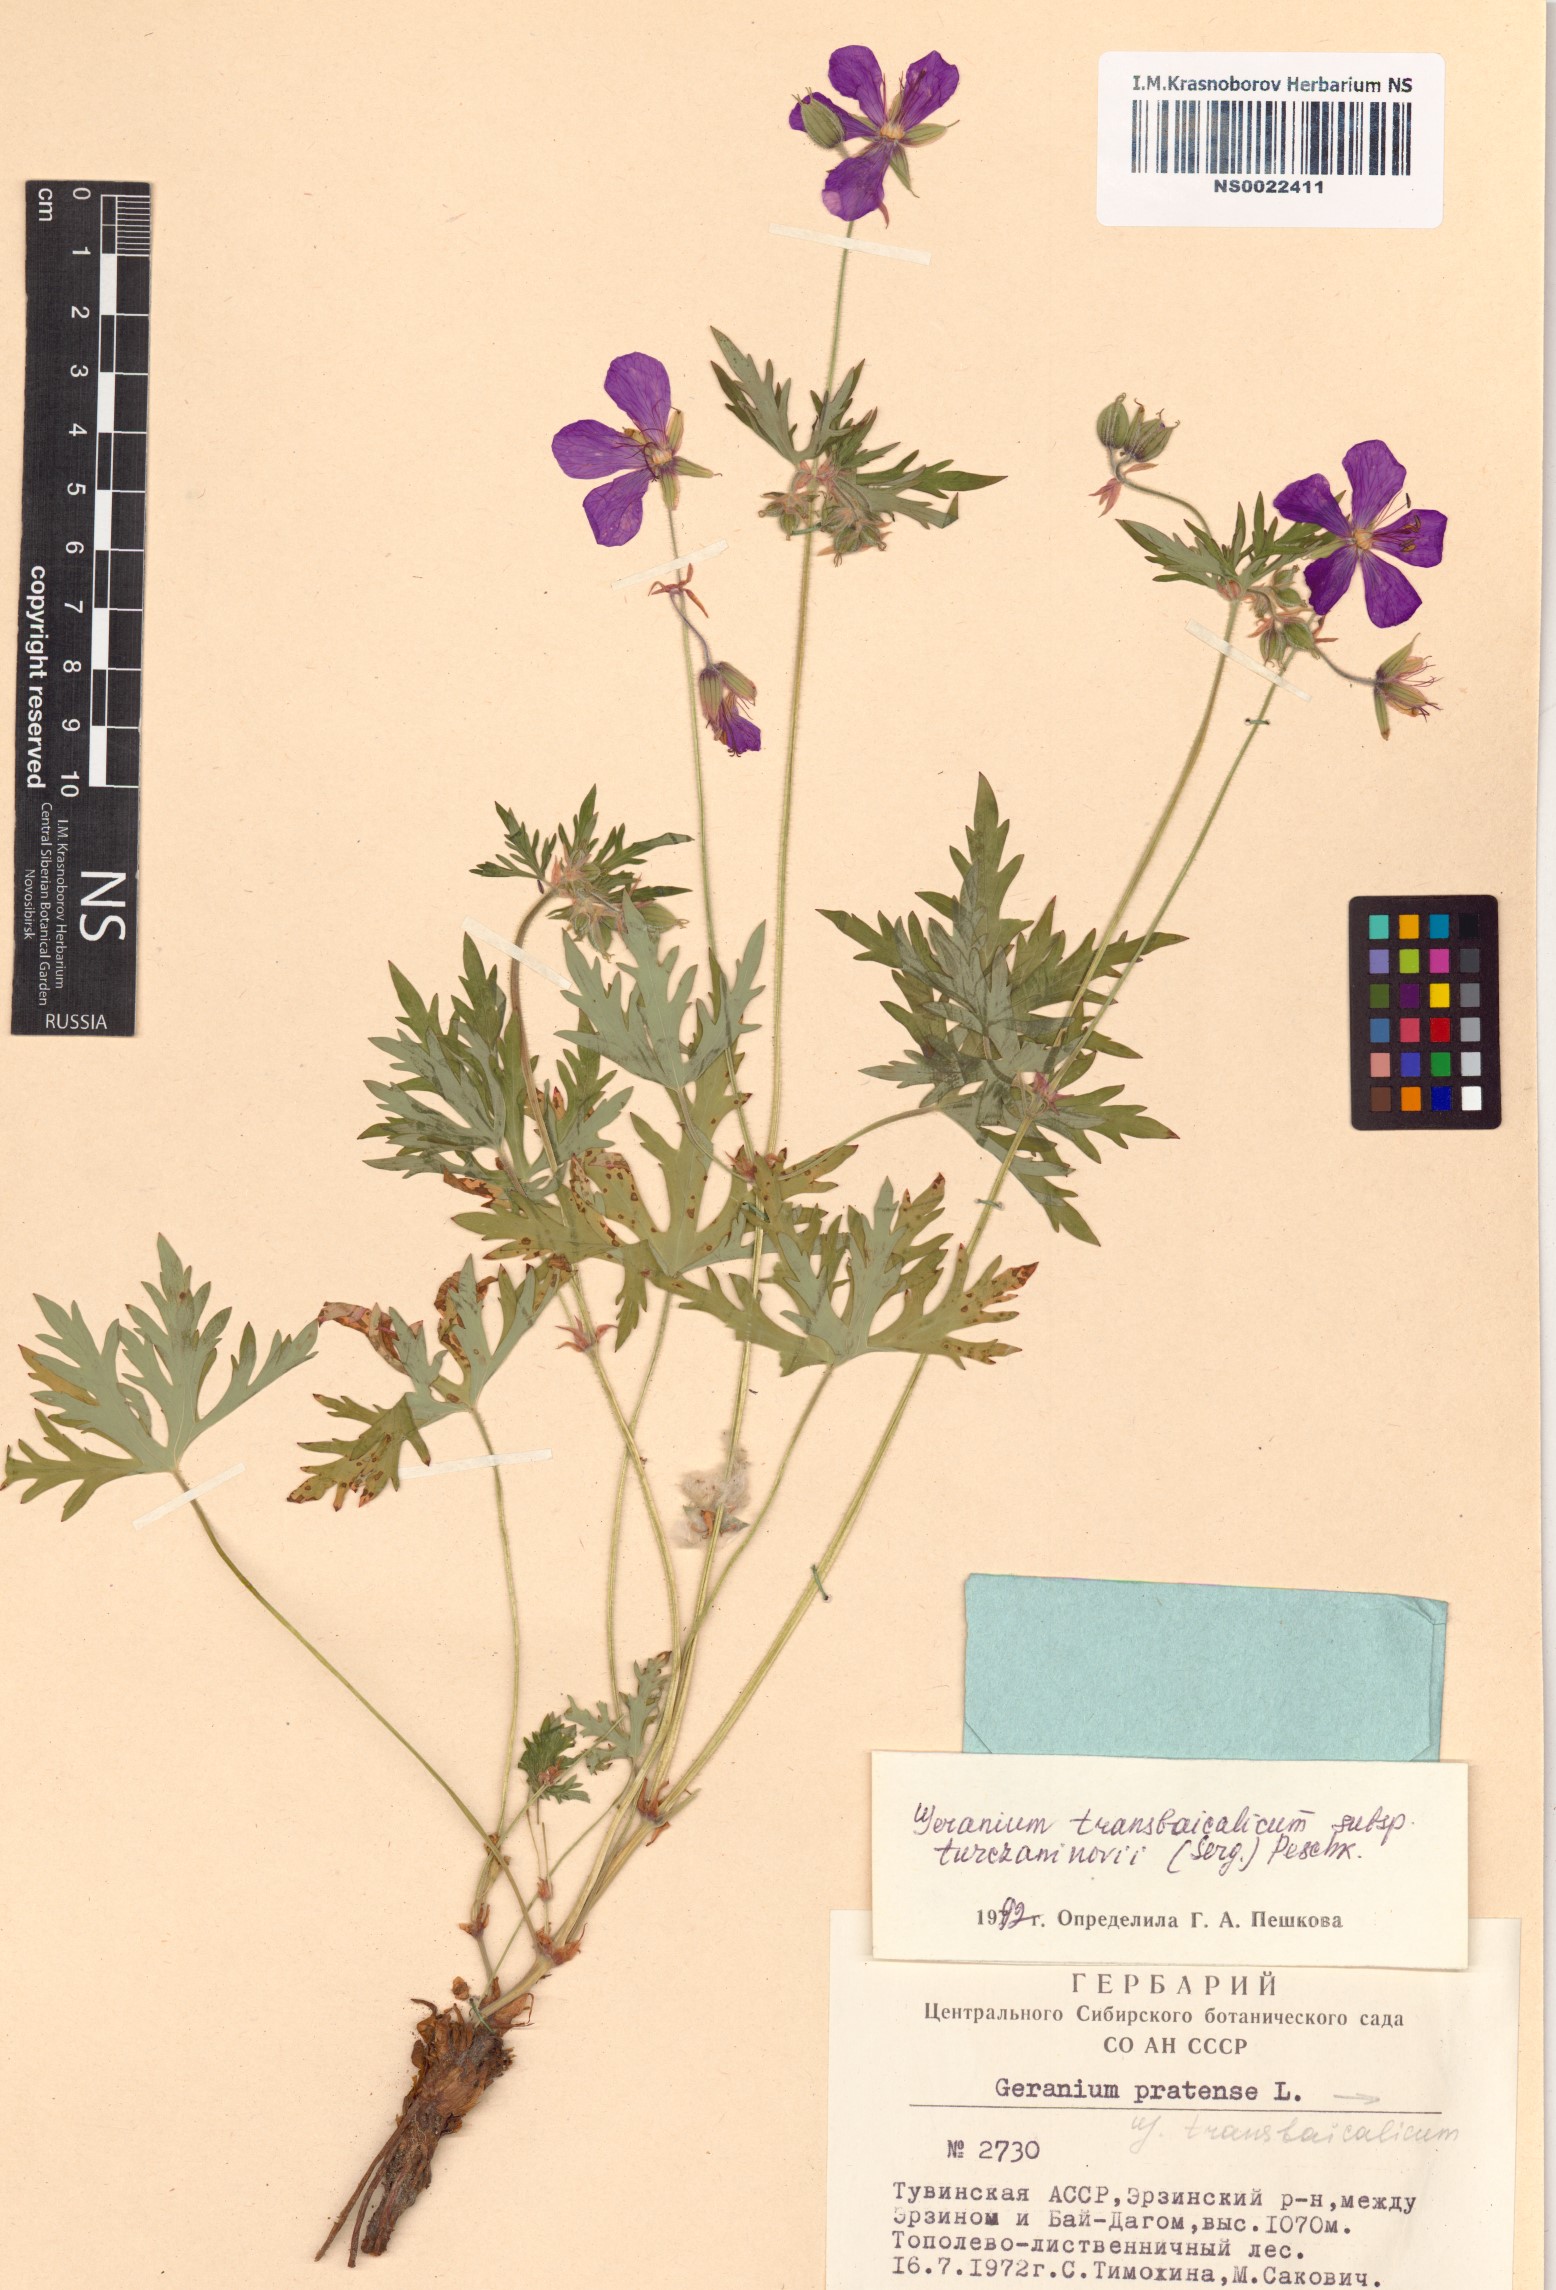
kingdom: Plantae
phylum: Tracheophyta
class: Magnoliopsida
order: Geraniales
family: Geraniaceae
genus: Geranium
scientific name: Geranium pratense
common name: Meadow crane's-bill
